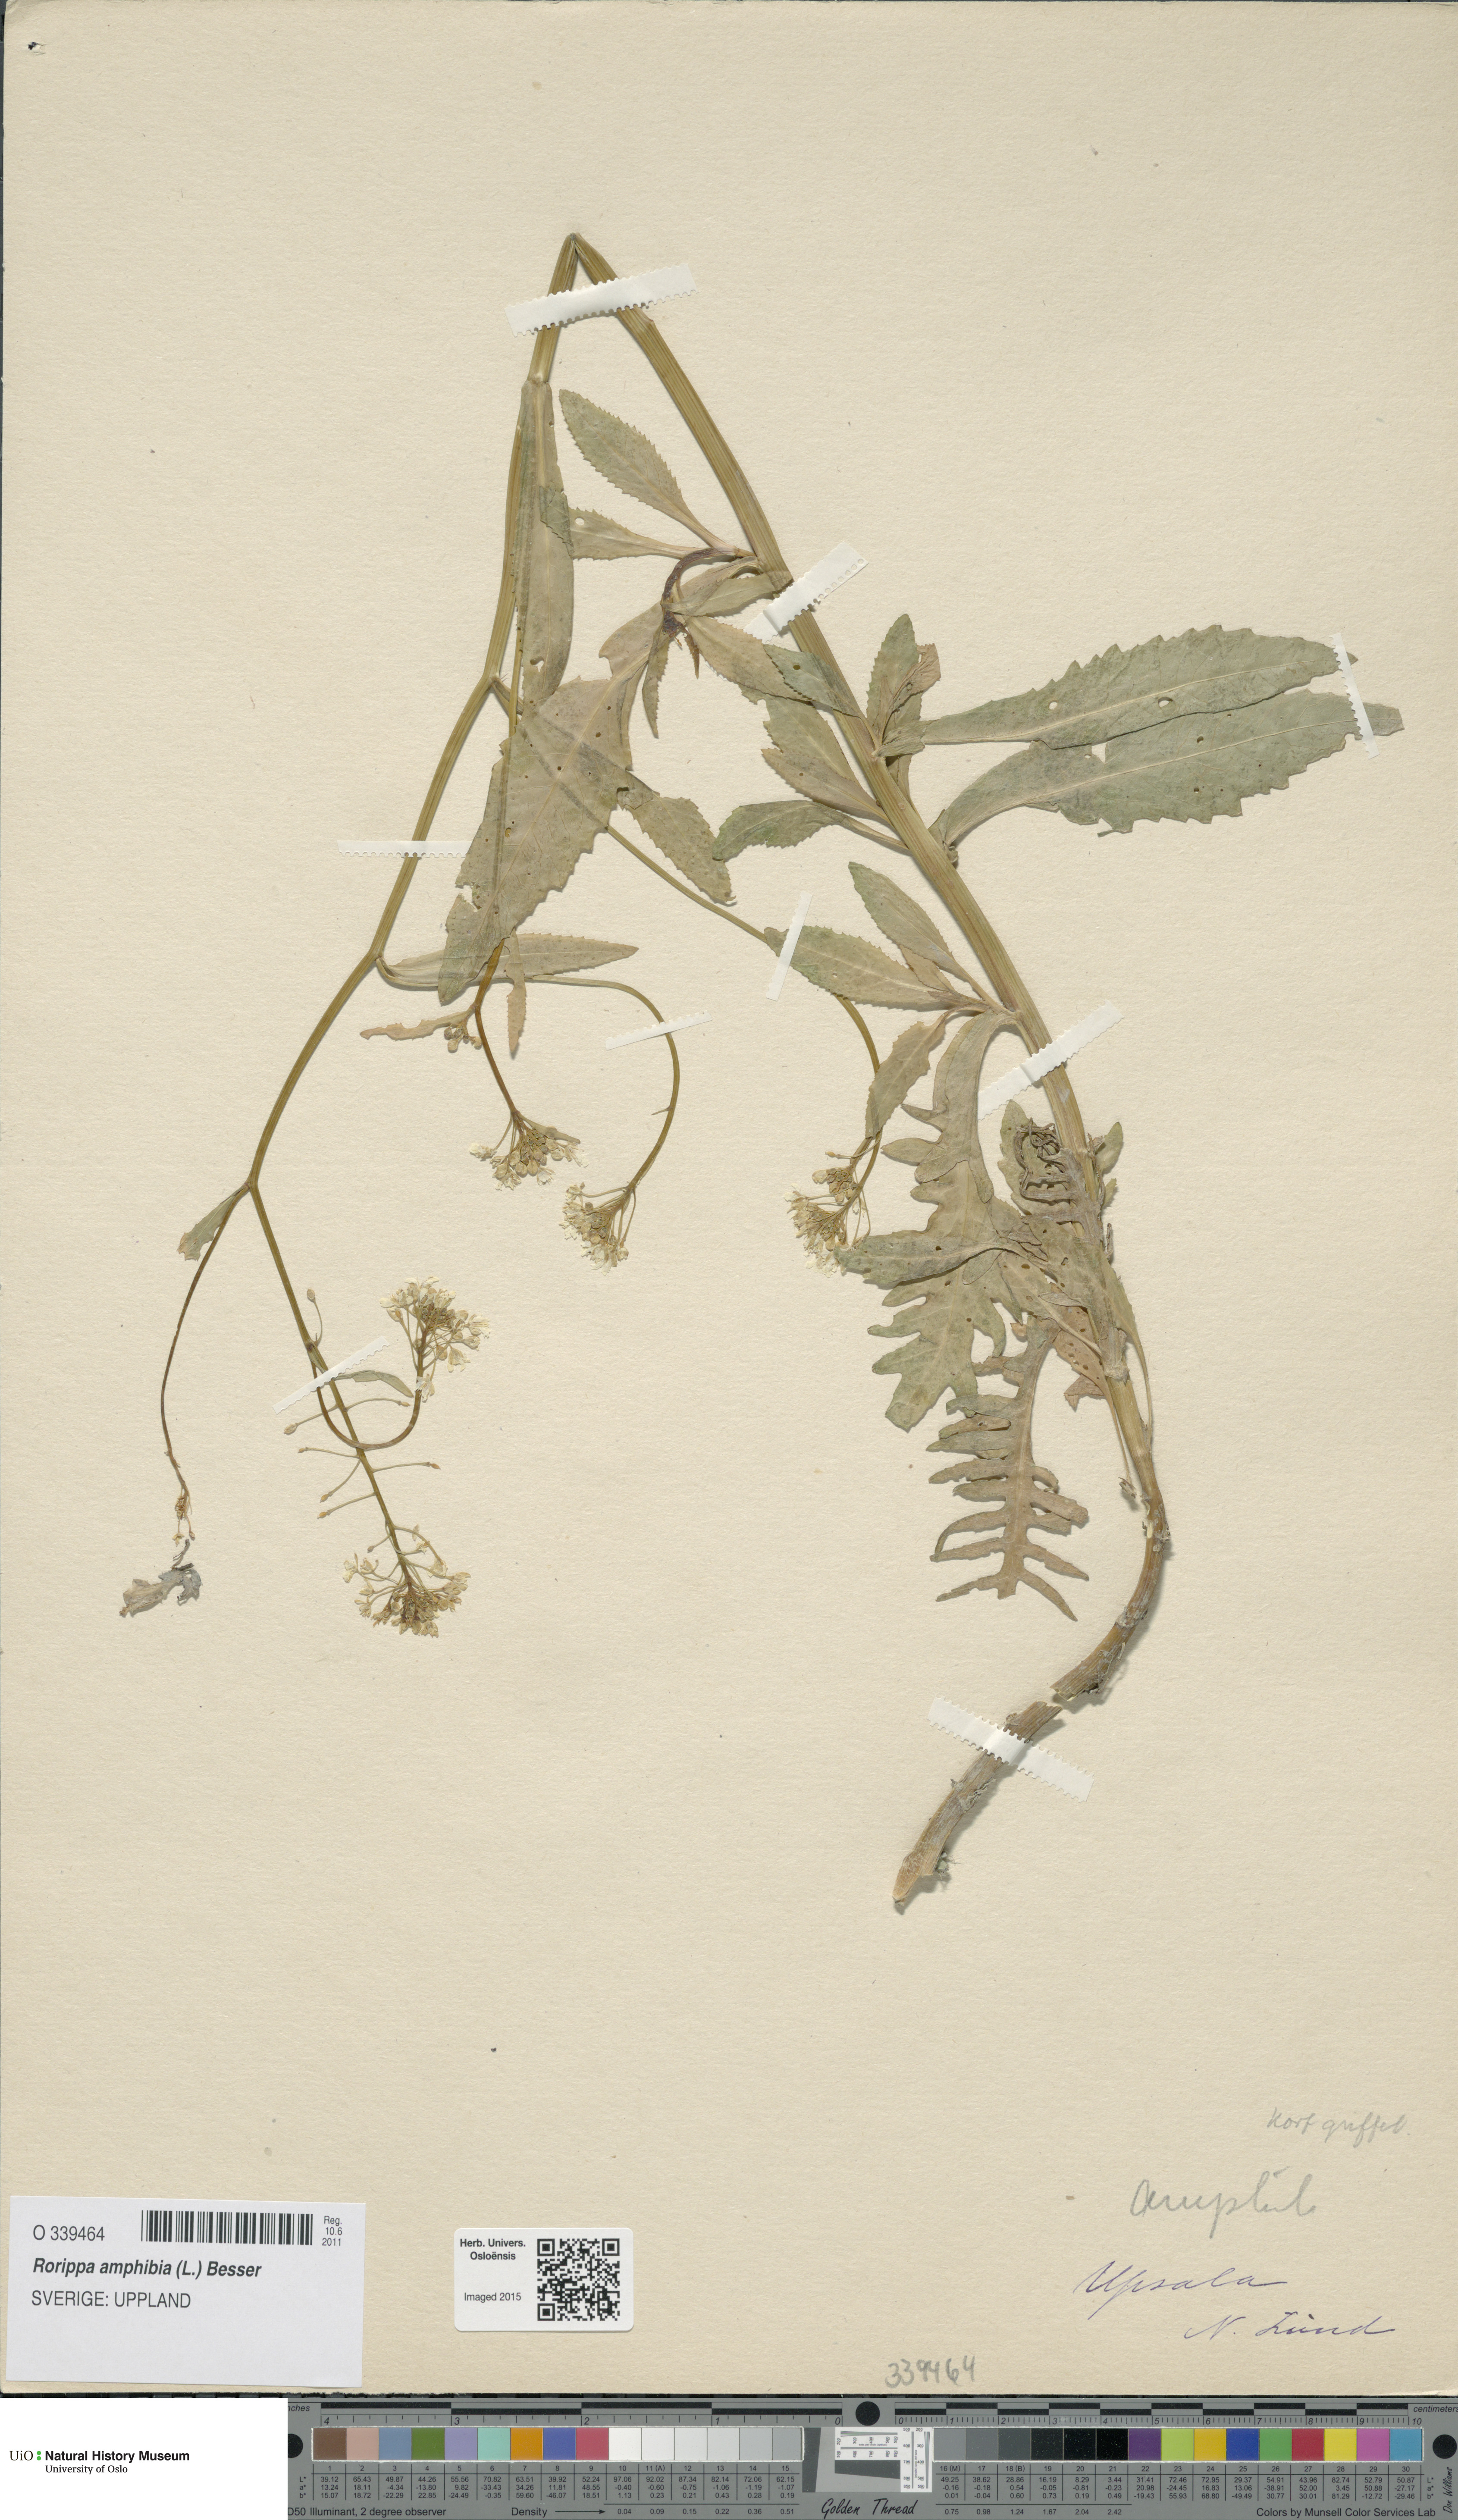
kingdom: Plantae
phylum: Tracheophyta
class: Magnoliopsida
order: Brassicales
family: Brassicaceae
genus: Rorippa
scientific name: Rorippa amphibia
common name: Great yellow-cress
